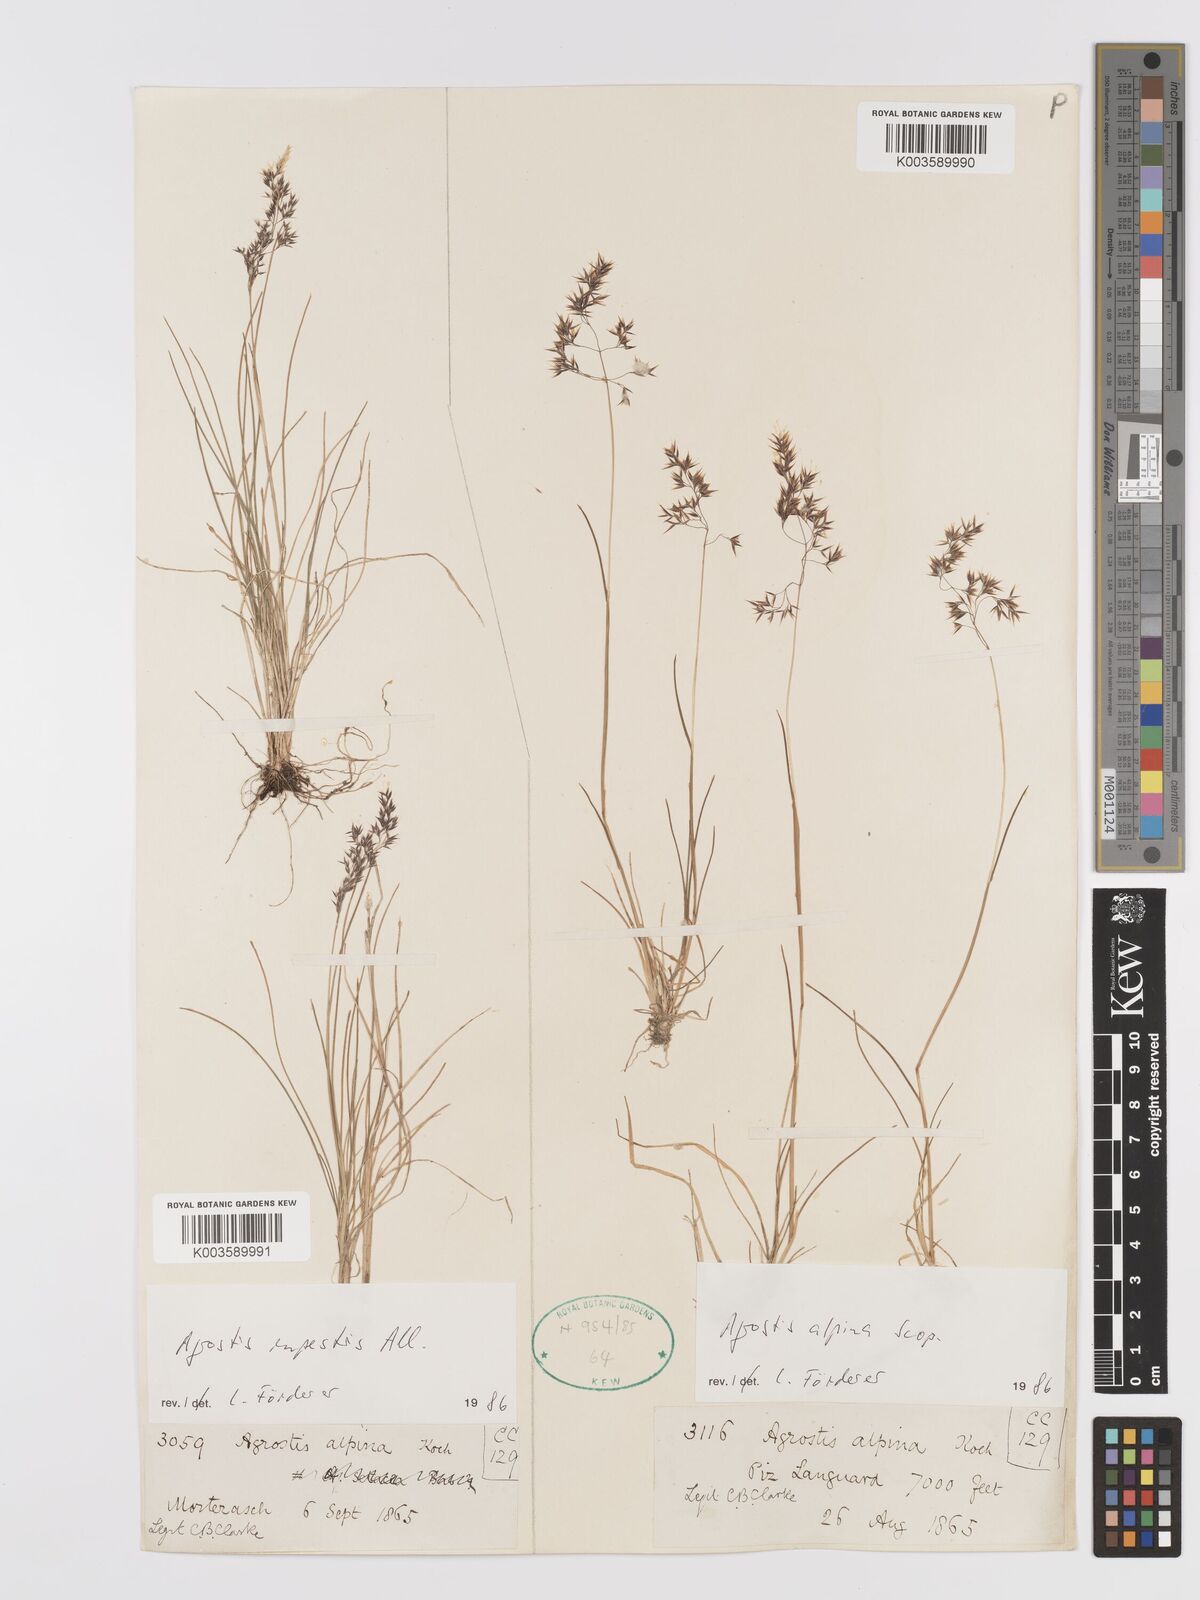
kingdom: Plantae
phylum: Tracheophyta
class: Liliopsida
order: Poales
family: Poaceae
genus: Alpagrostis
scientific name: Alpagrostis alpina
